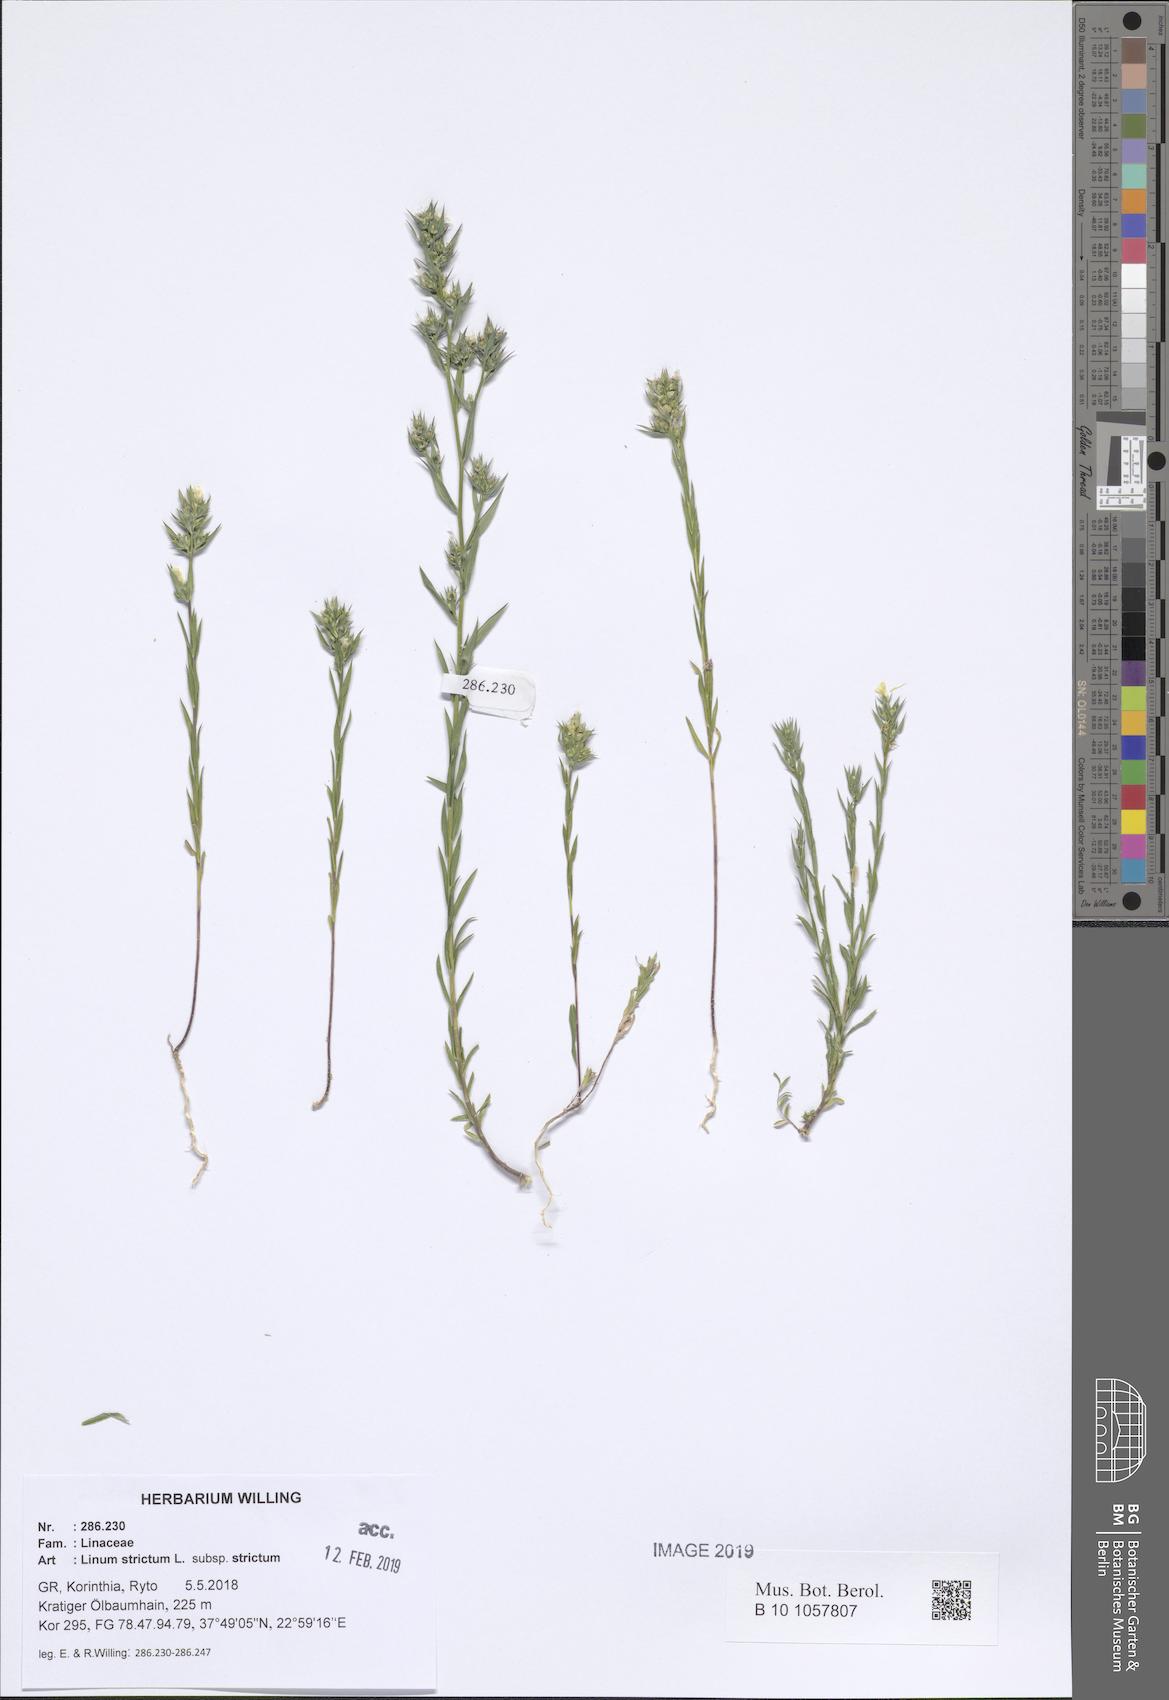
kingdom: Plantae
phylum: Tracheophyta
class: Magnoliopsida
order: Malpighiales
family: Linaceae
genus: Linum
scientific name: Linum strictum
